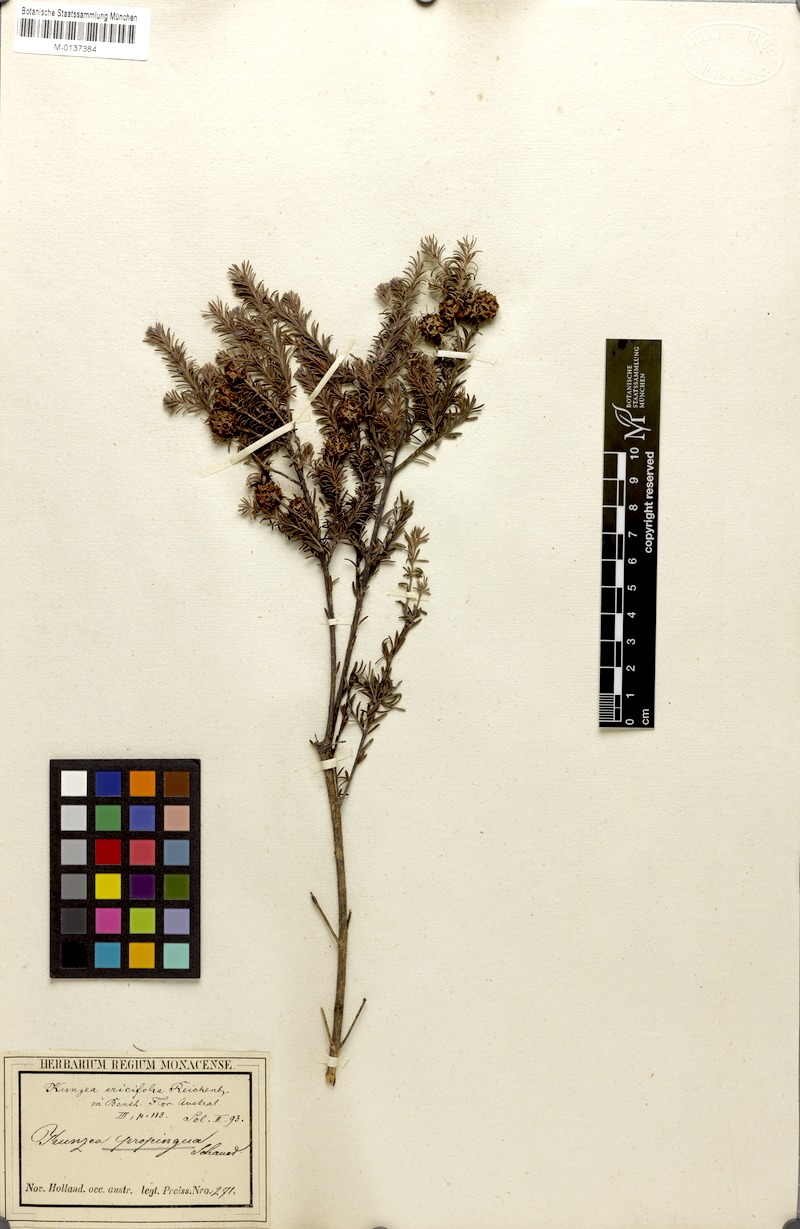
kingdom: Plantae
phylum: Tracheophyta
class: Magnoliopsida
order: Myrtales
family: Myrtaceae
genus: Kunzea
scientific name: Kunzea ericifolia
